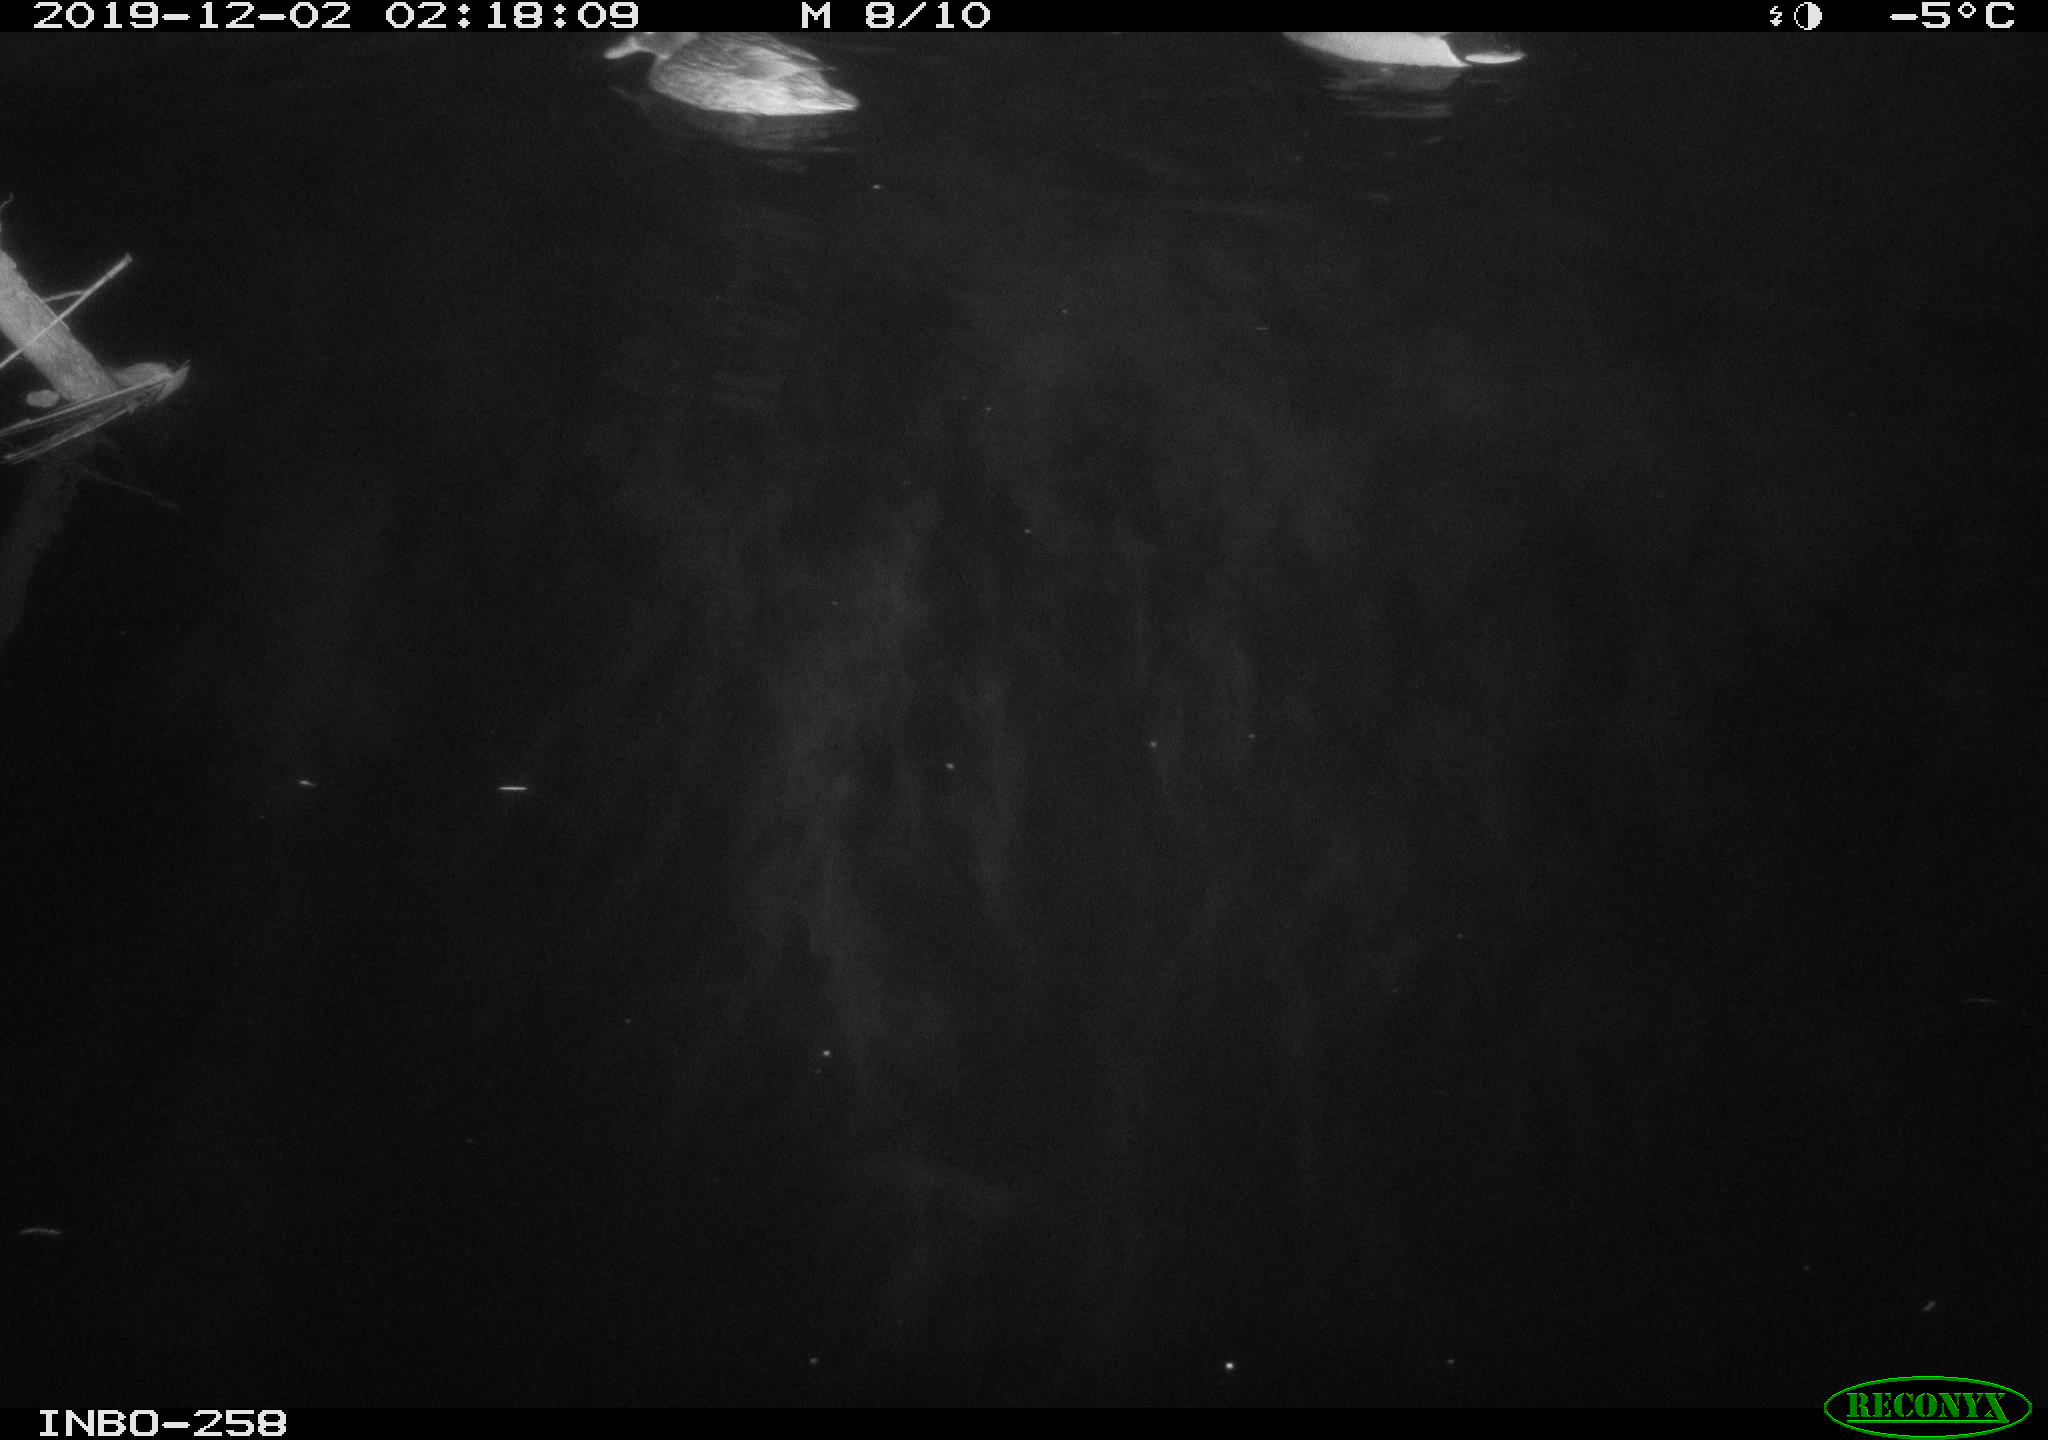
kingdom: Animalia
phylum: Chordata
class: Aves
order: Anseriformes
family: Anatidae
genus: Anas
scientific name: Anas platyrhynchos
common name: Mallard
